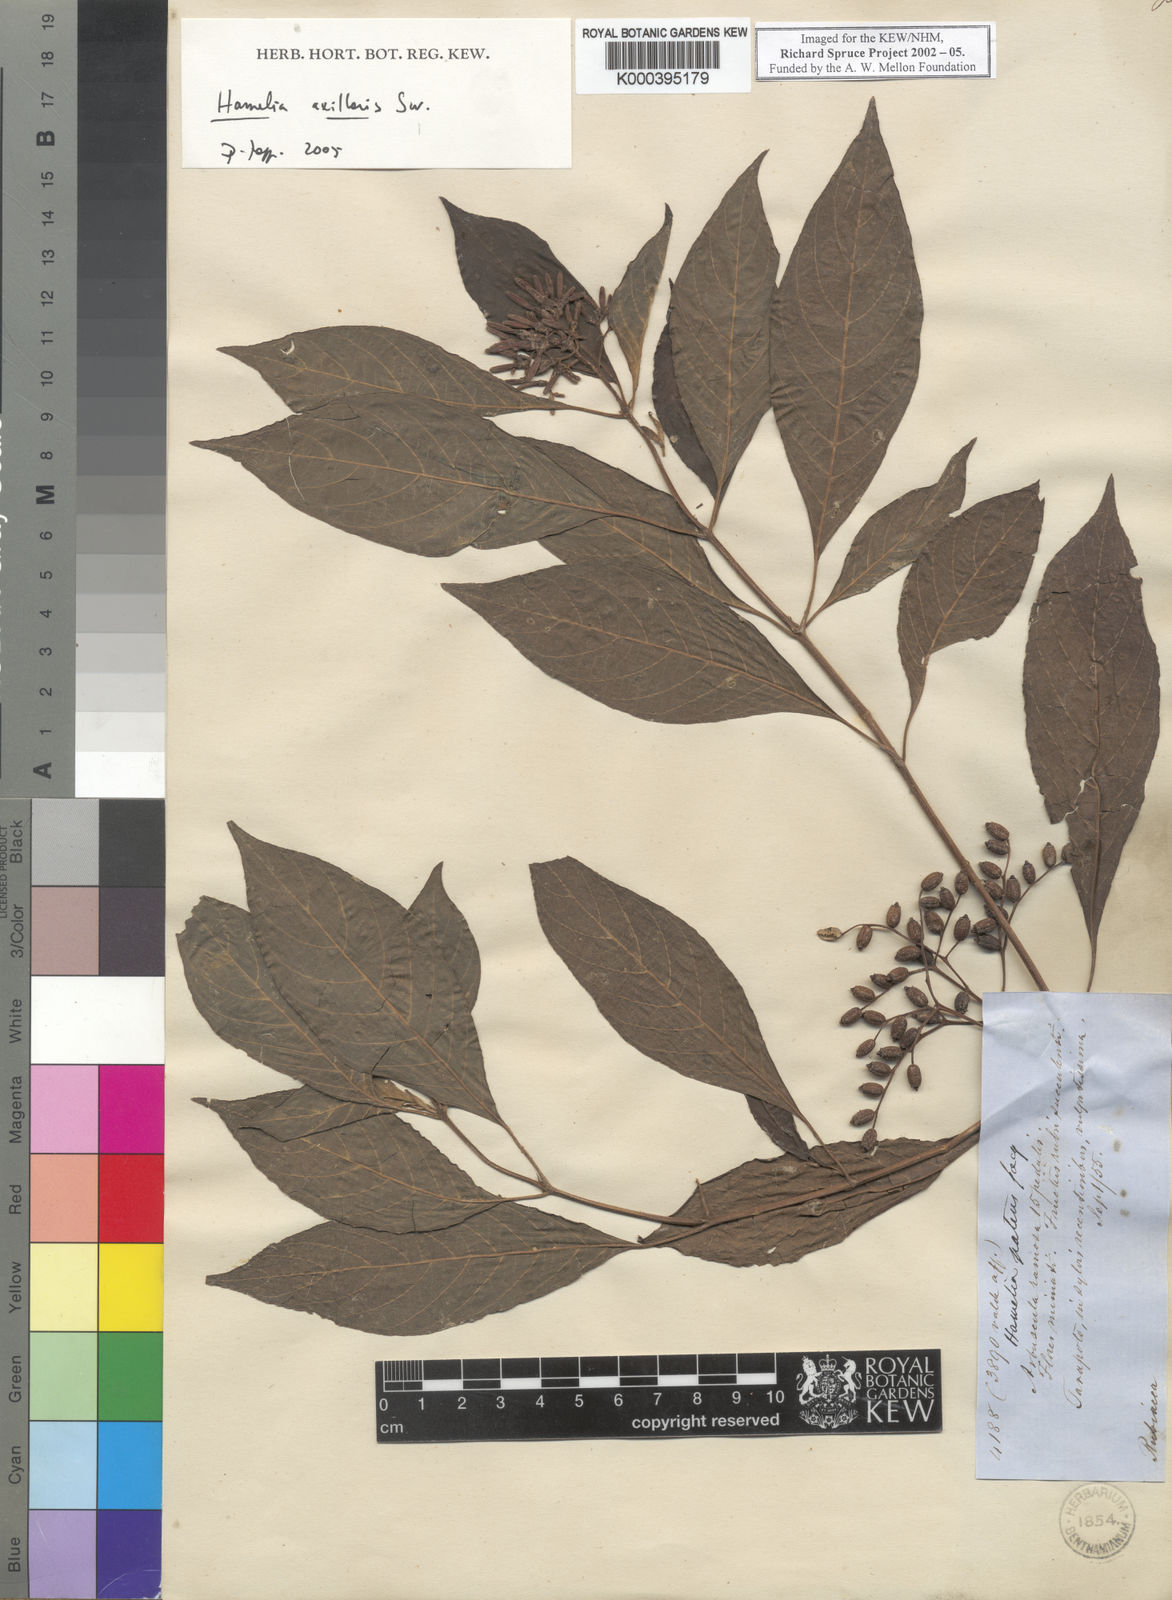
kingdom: Plantae
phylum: Tracheophyta
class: Magnoliopsida
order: Gentianales
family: Rubiaceae
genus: Hamelia
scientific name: Hamelia axillaris
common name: Balsamillo
